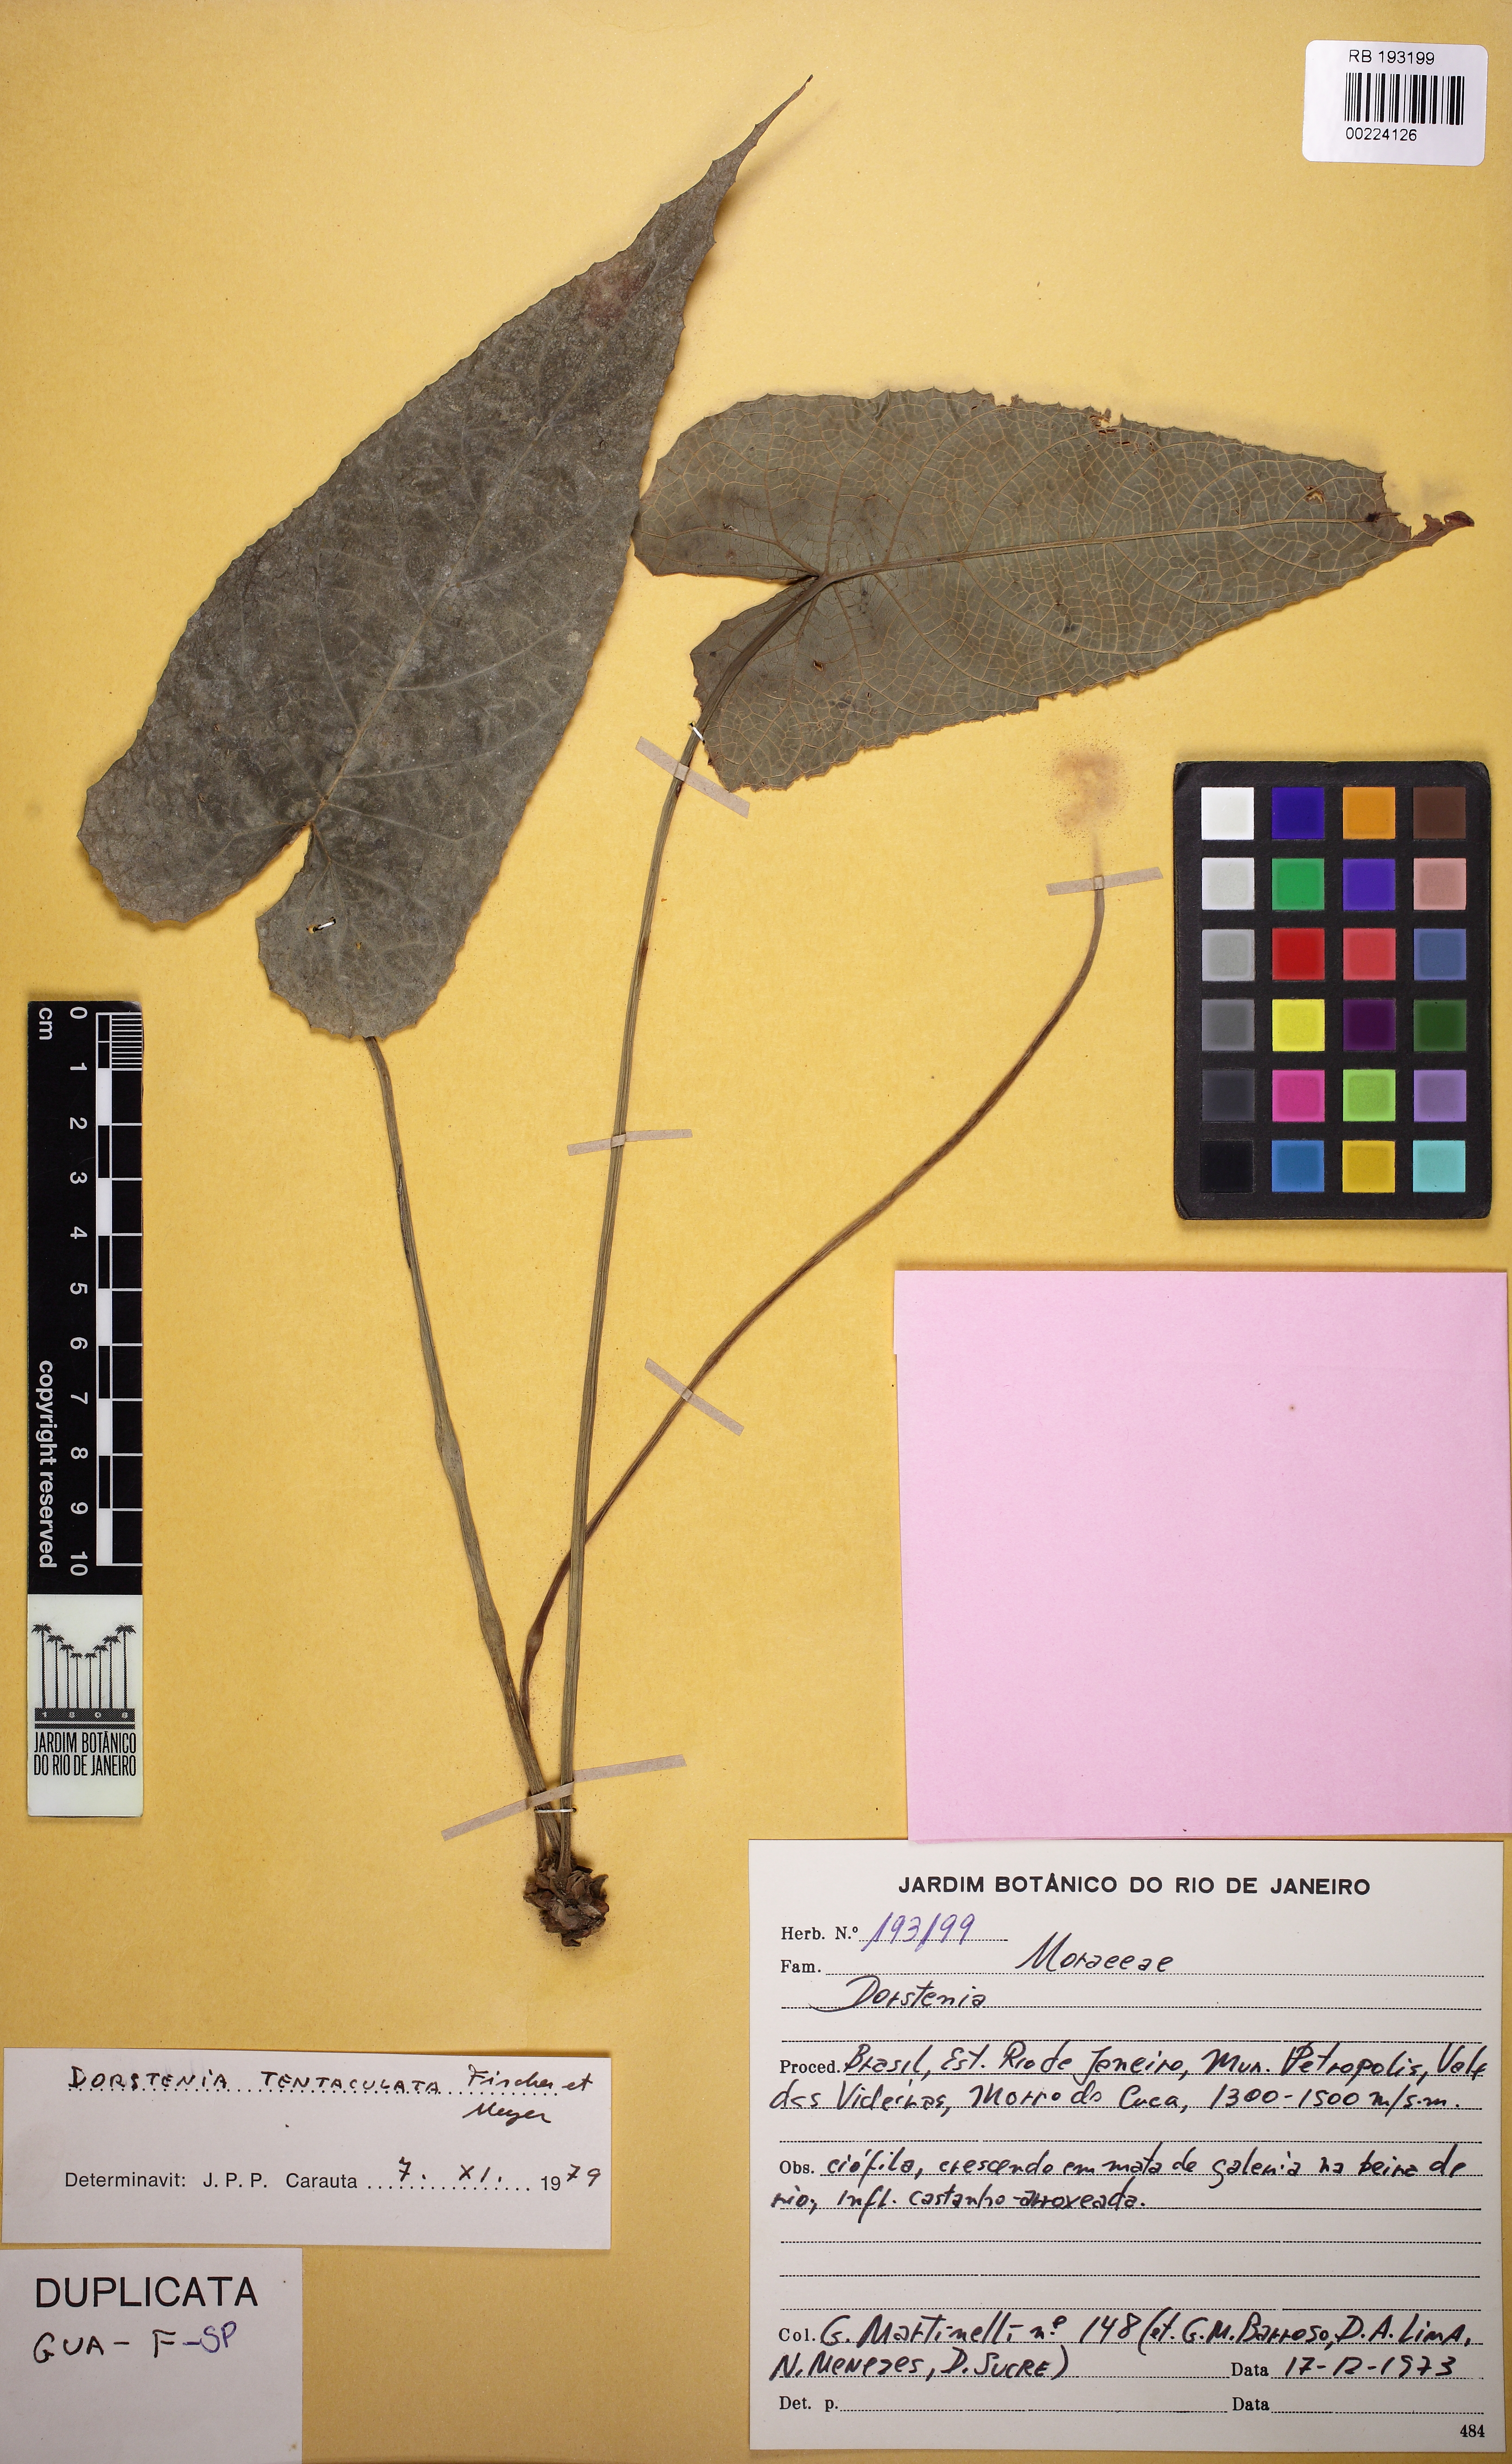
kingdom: Plantae
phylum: Tracheophyta
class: Magnoliopsida
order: Rosales
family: Moraceae
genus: Dorstenia
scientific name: Dorstenia arifolia
